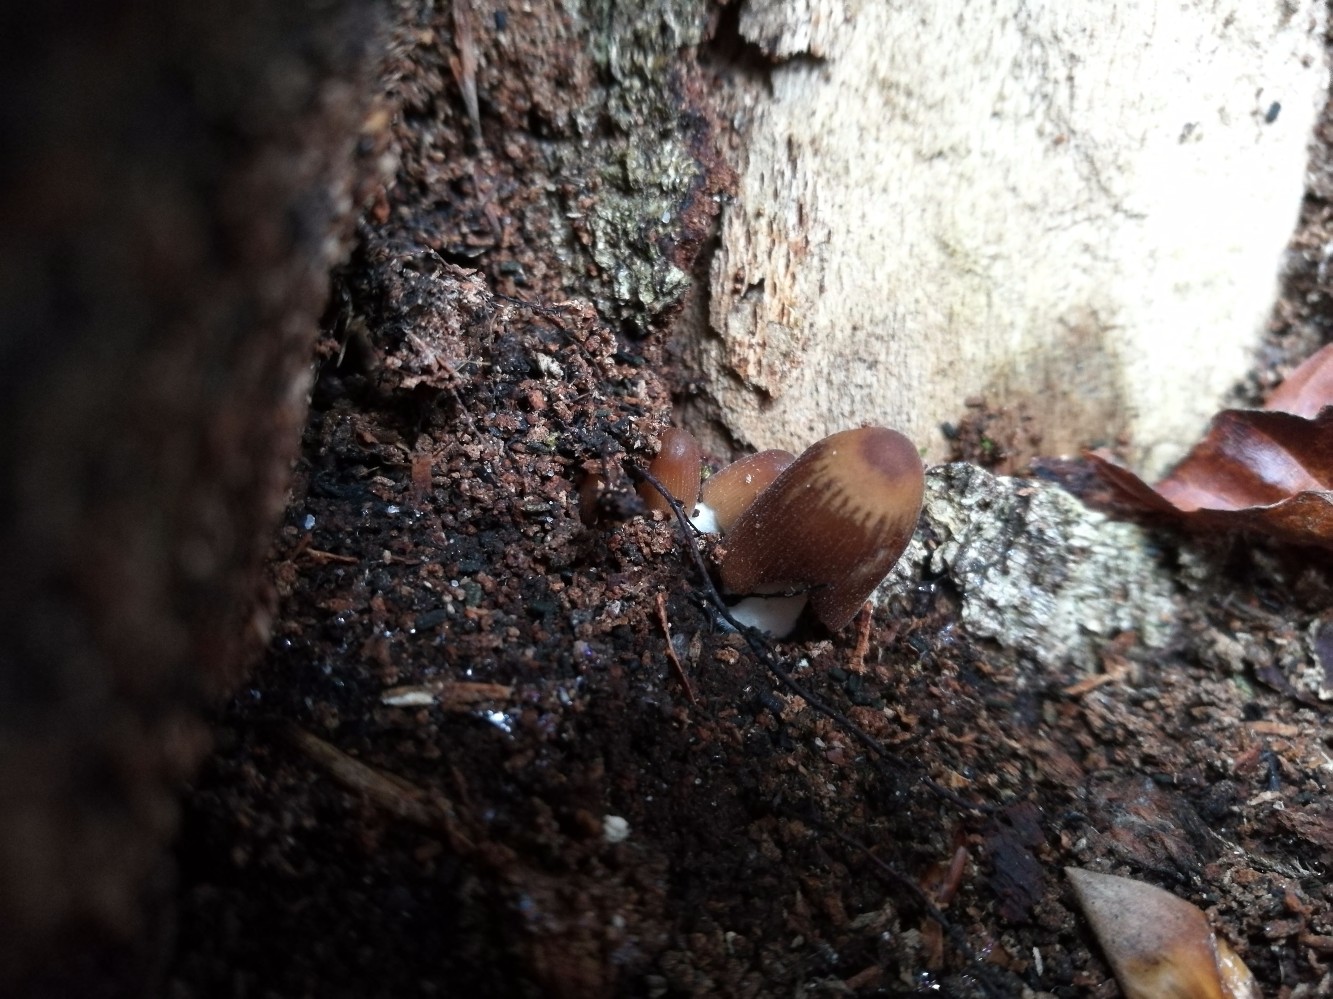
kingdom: Fungi
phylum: Basidiomycota
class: Agaricomycetes
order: Agaricales
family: Psathyrellaceae
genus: Tulosesus
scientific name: Tulosesus angulatus
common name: kul-blækhat
